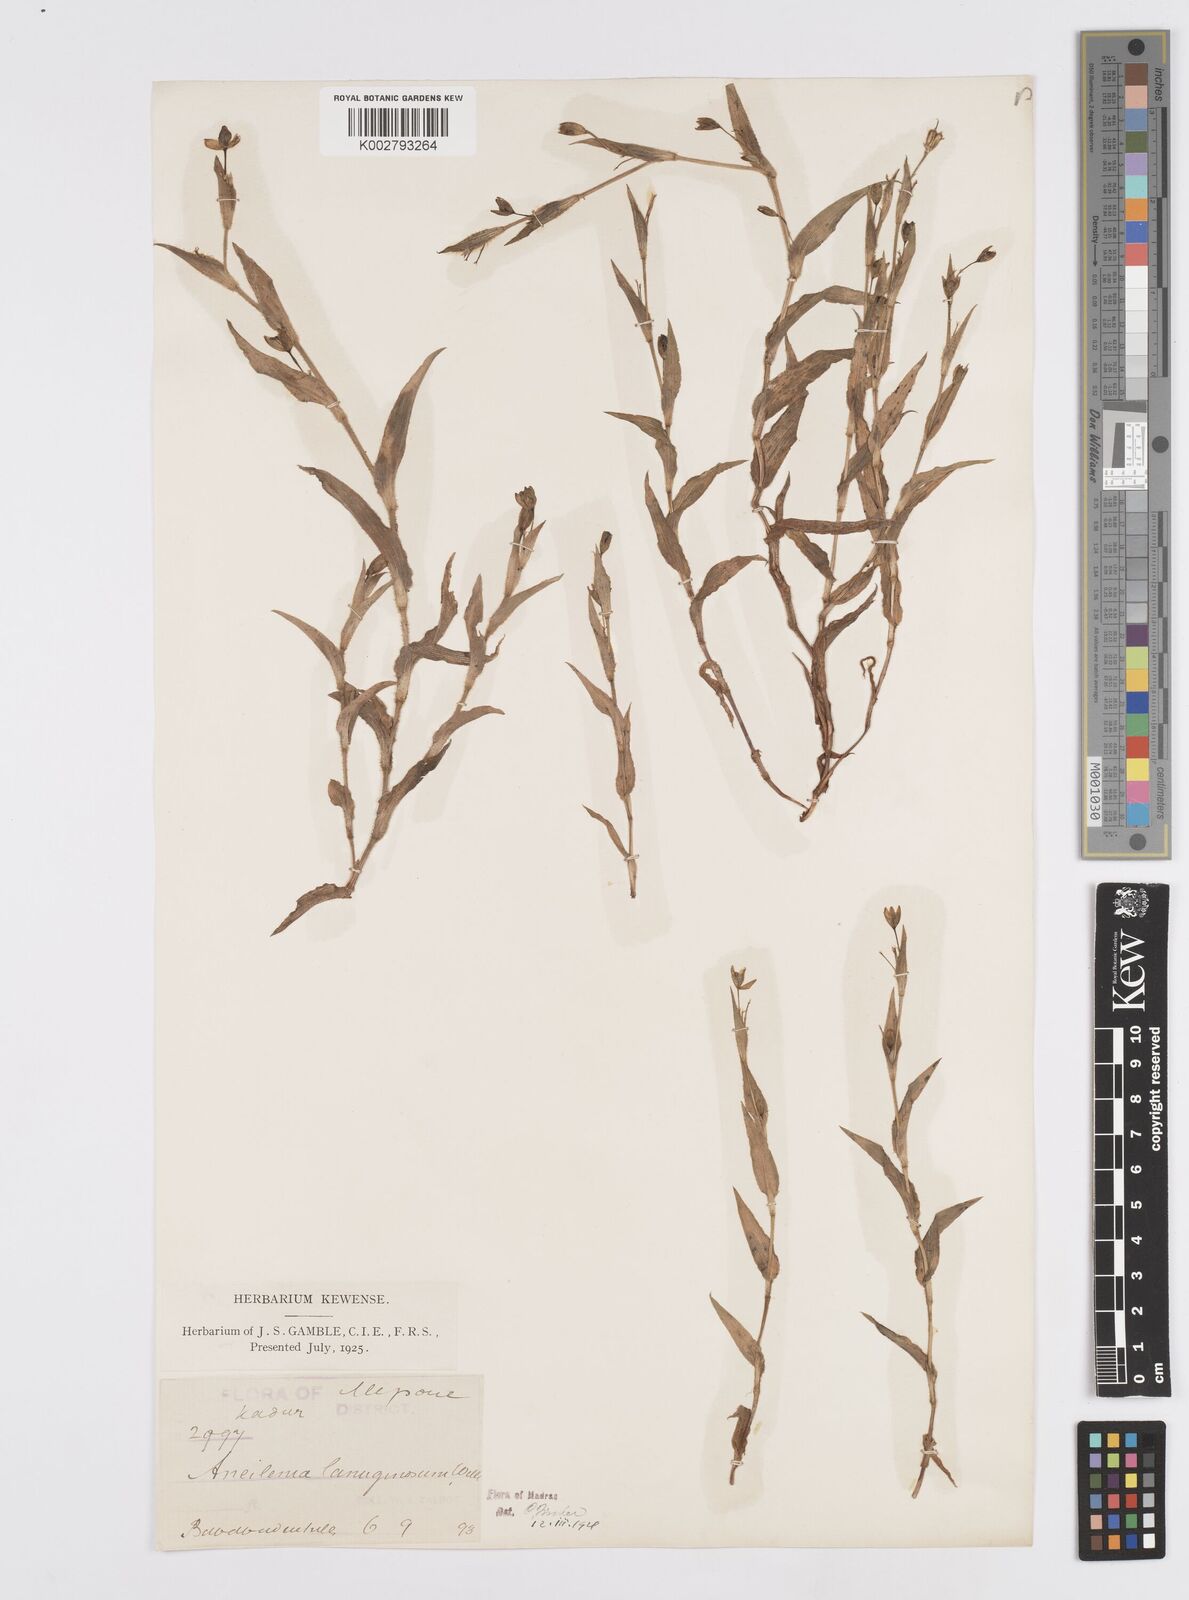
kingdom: Plantae
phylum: Tracheophyta
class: Liliopsida
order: Commelinales
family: Commelinaceae
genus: Murdannia
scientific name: Murdannia lanuginosa
